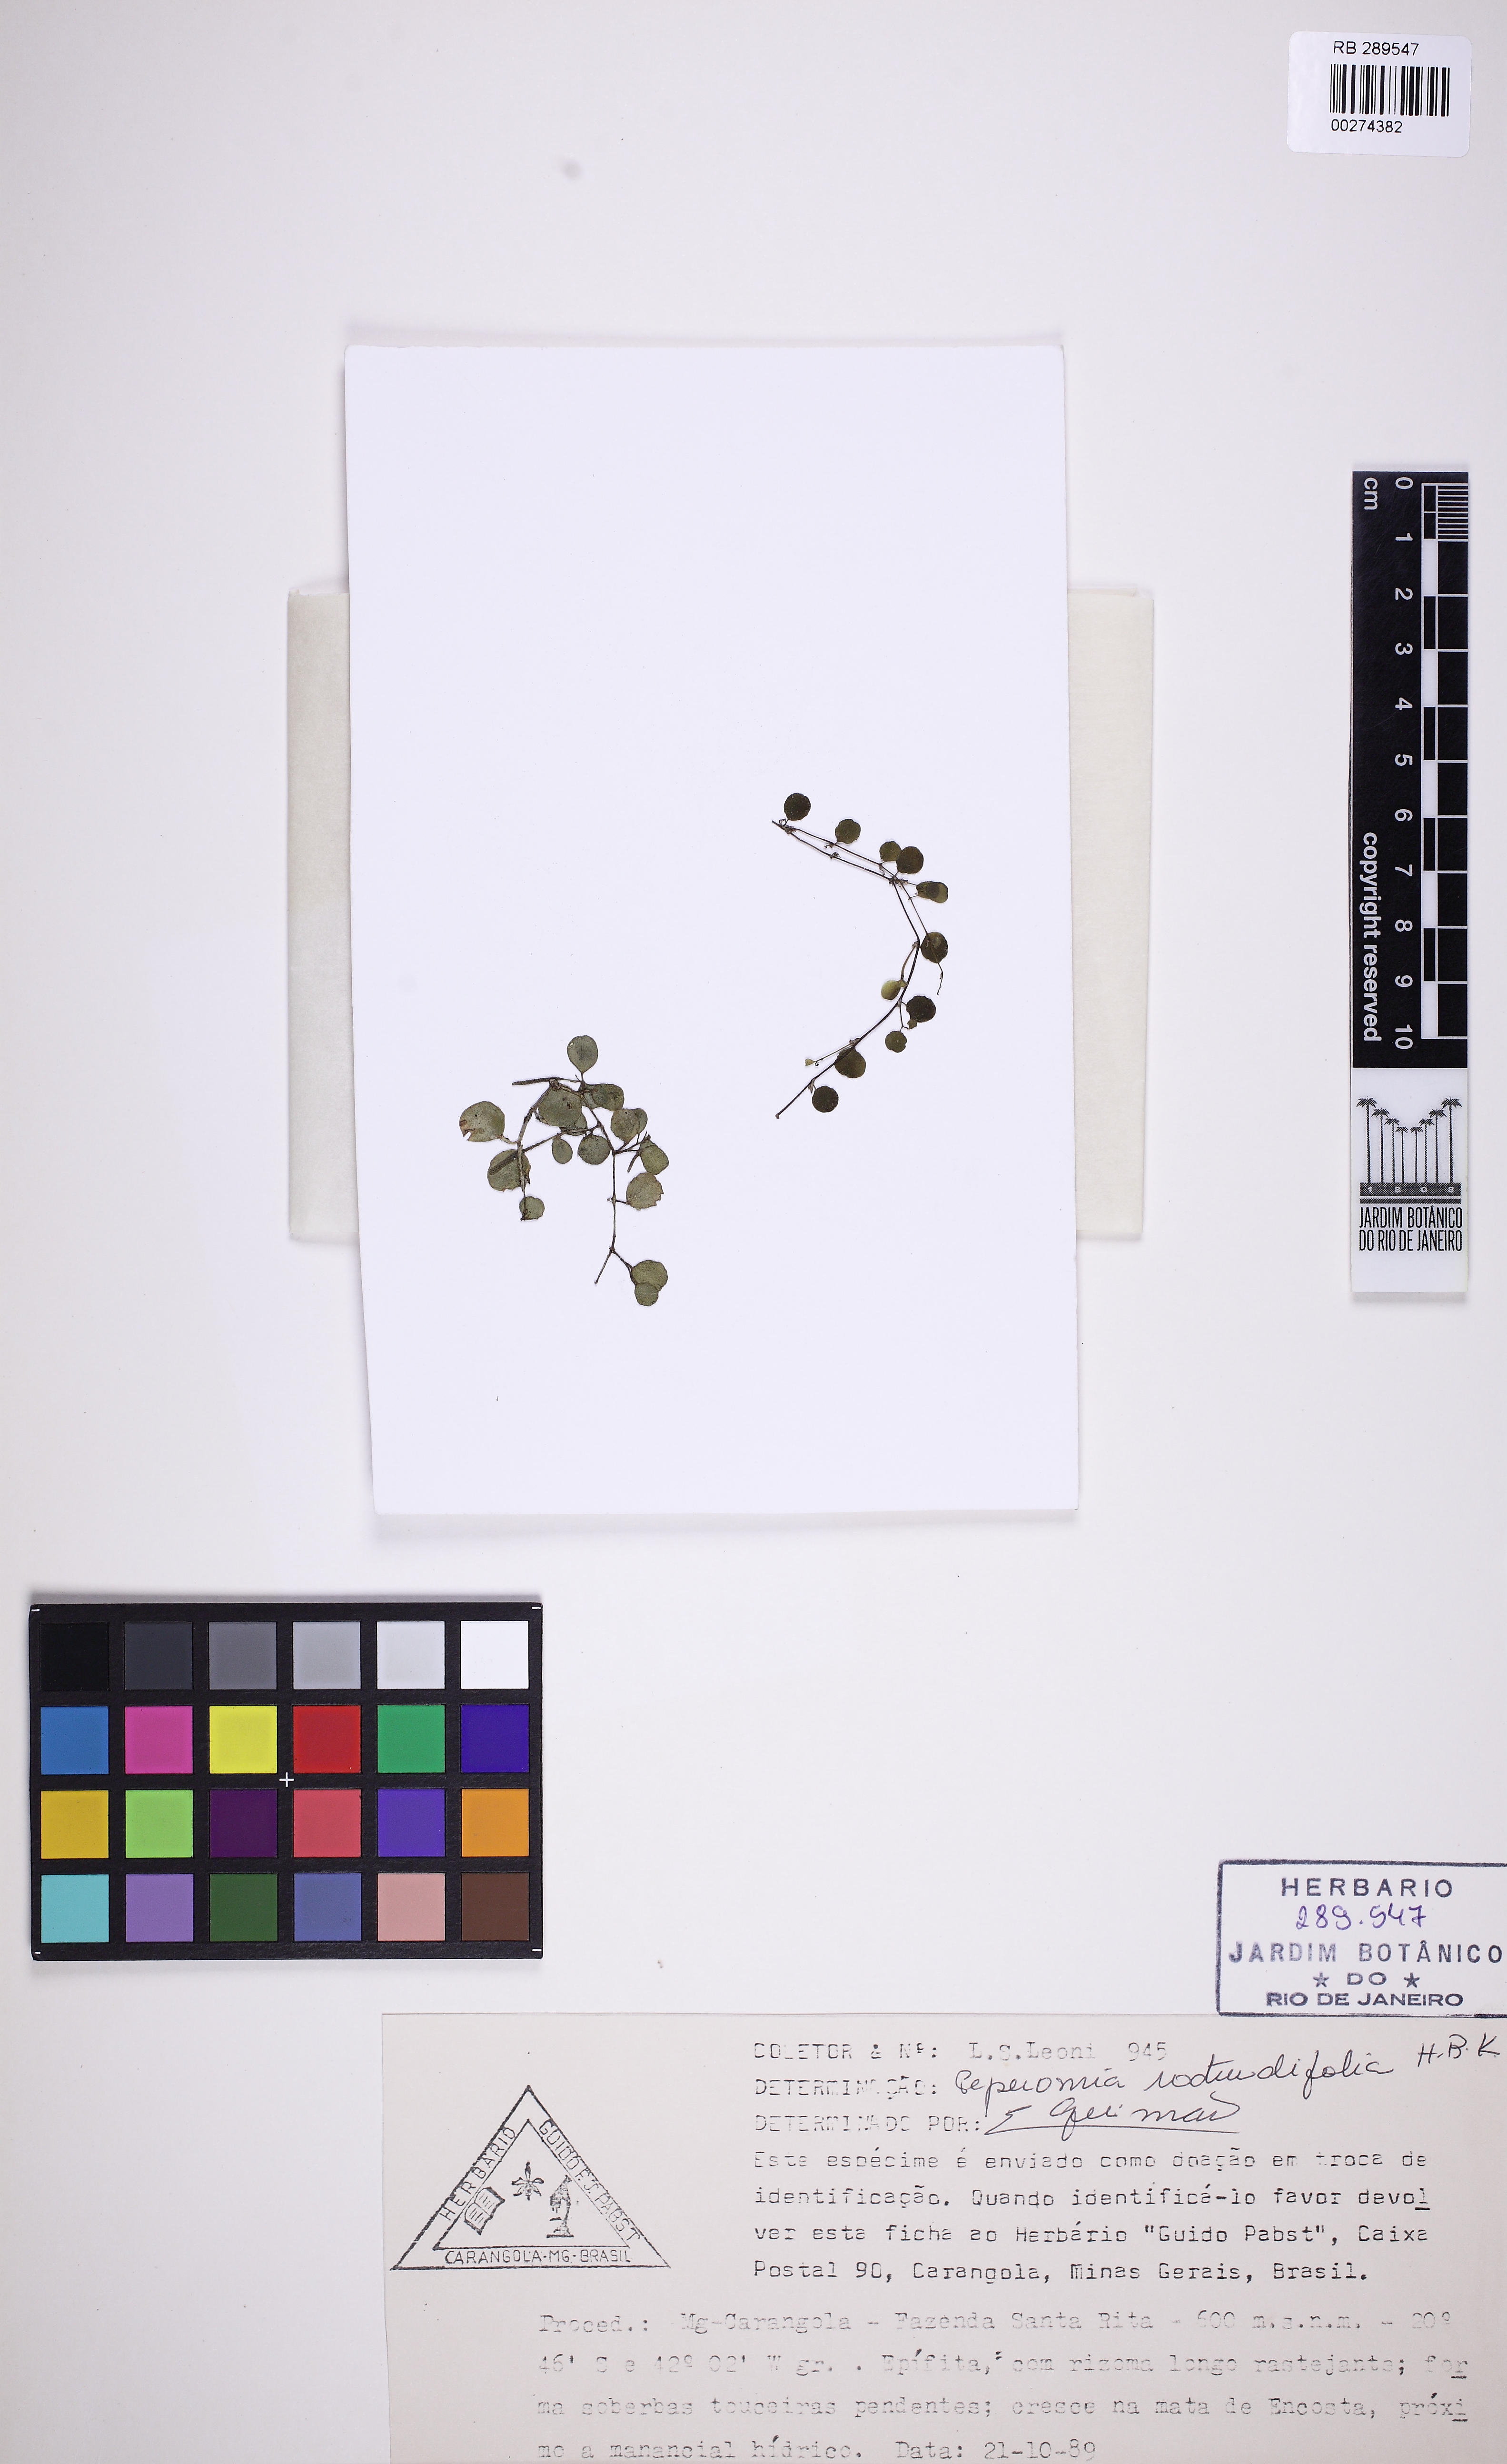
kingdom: Plantae
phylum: Tracheophyta
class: Magnoliopsida
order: Piperales
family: Piperaceae
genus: Peperomia
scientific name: Peperomia rotundifolia
